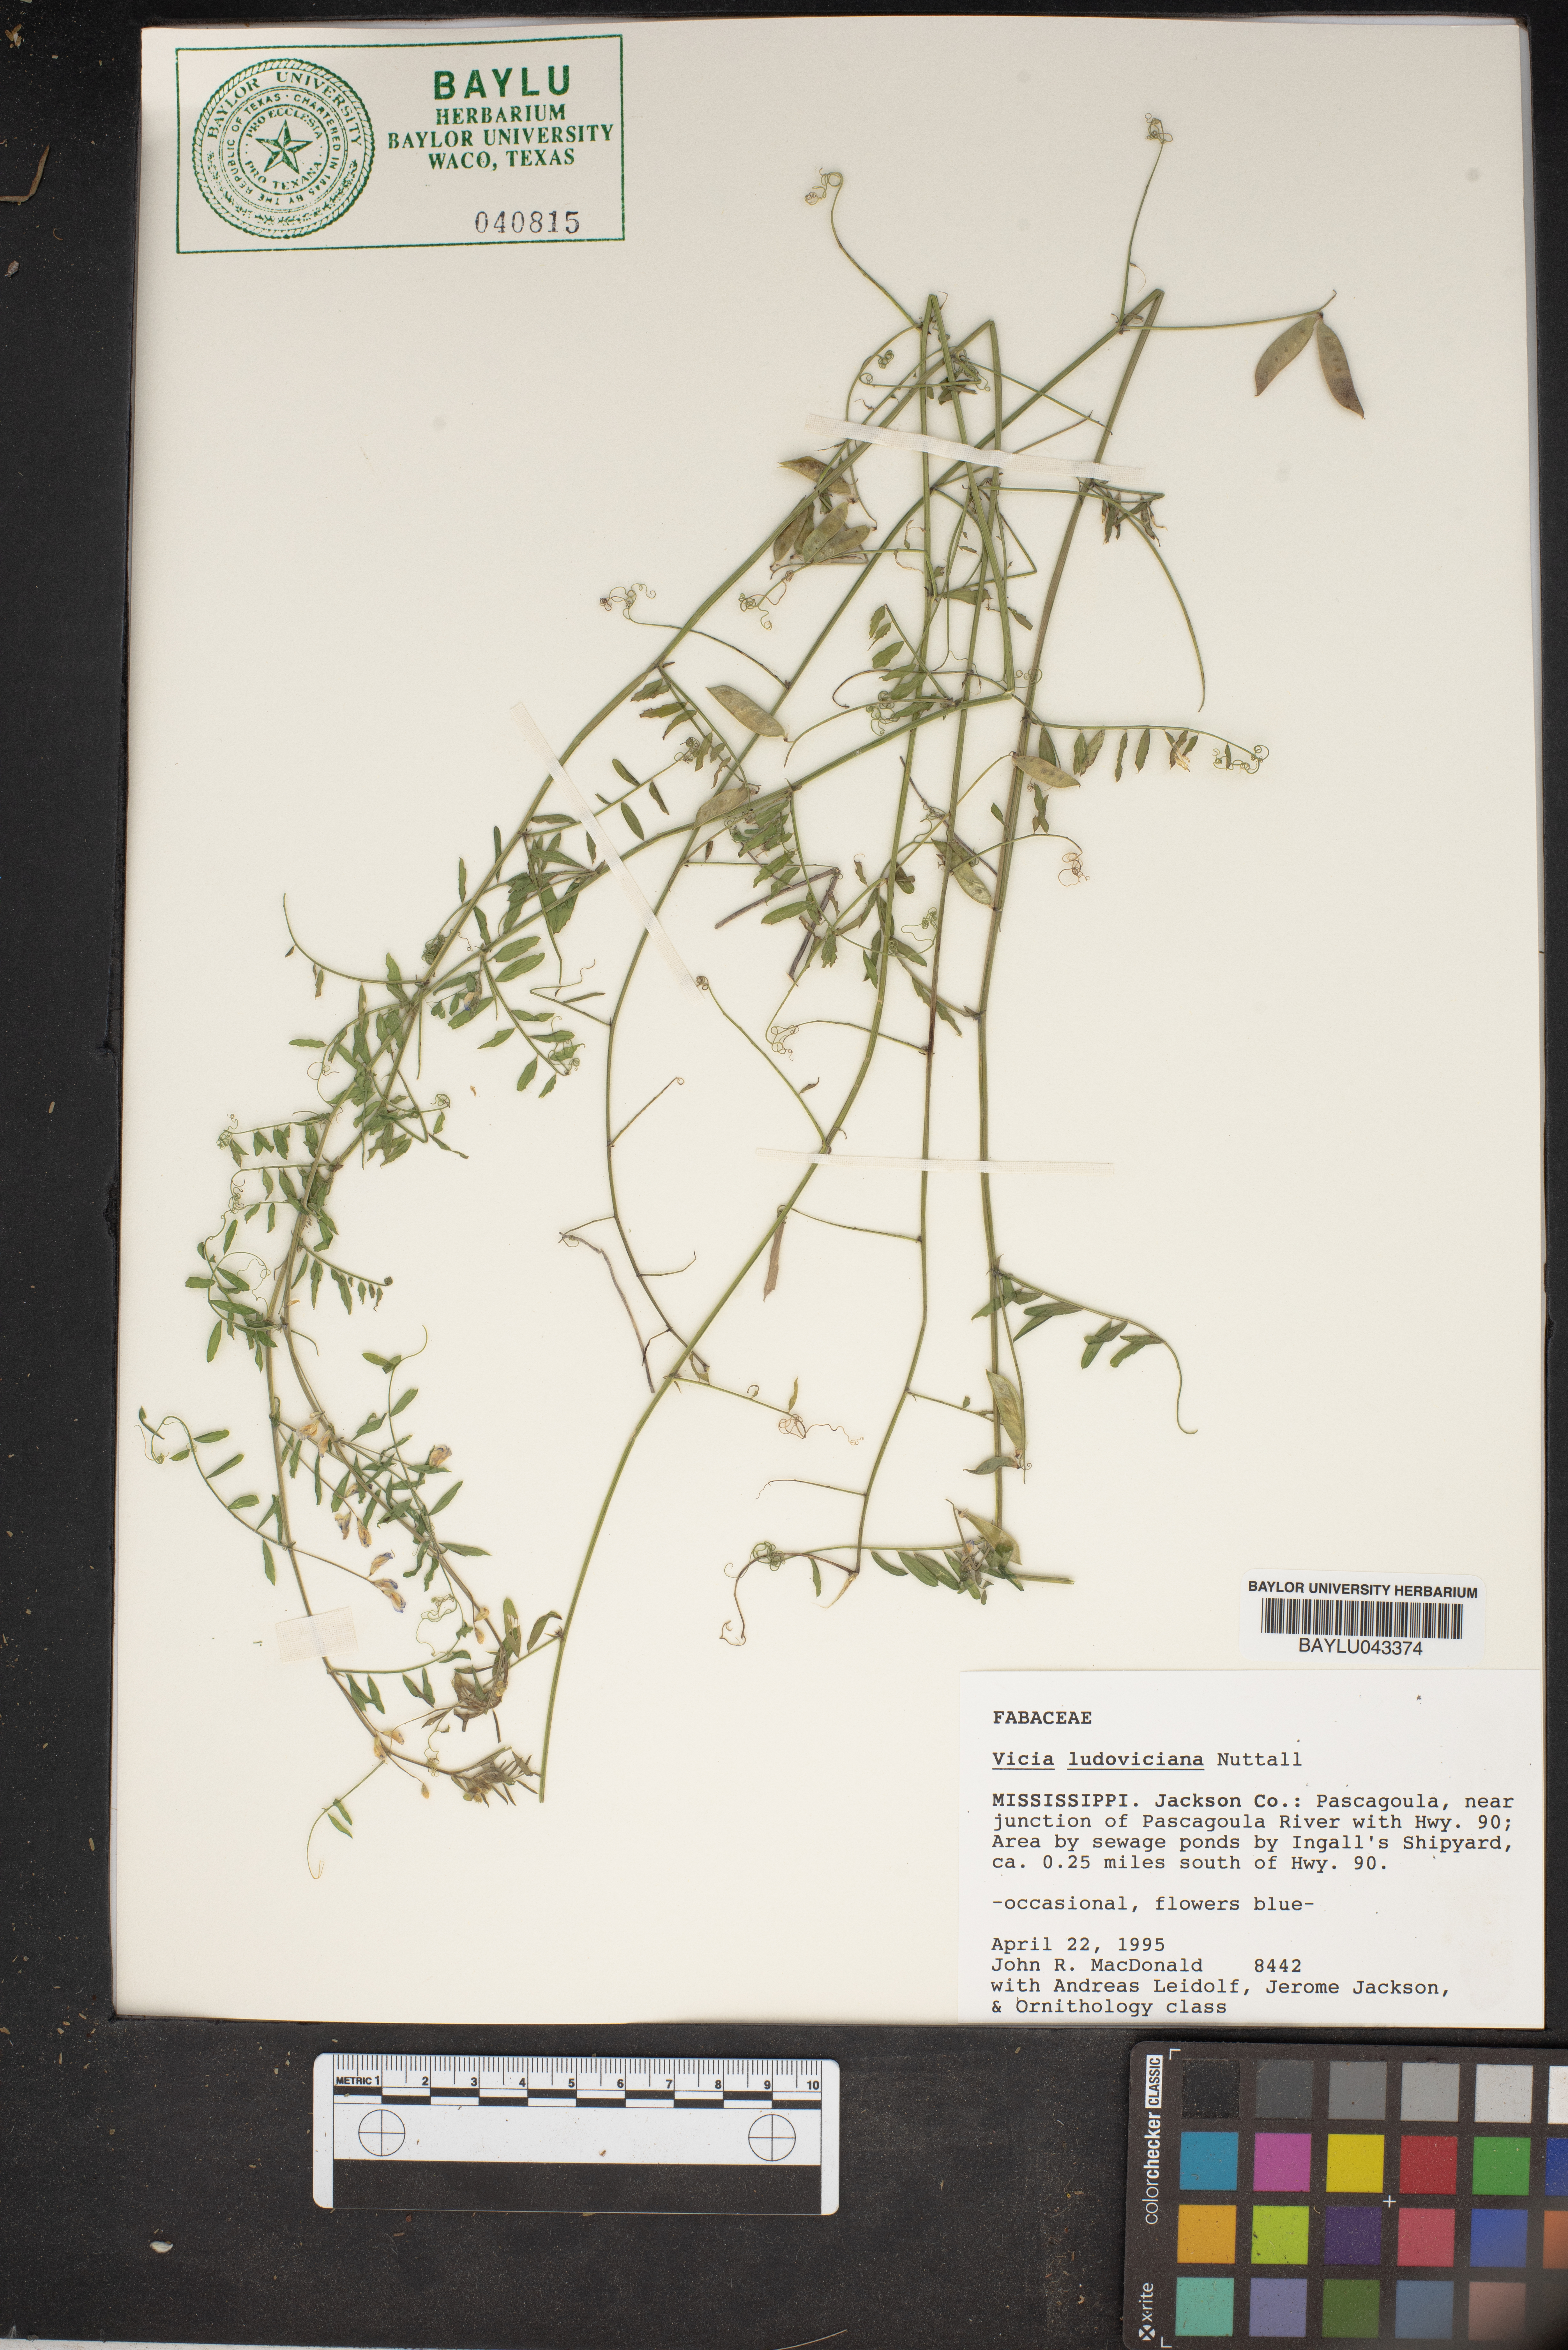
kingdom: Plantae
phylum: Tracheophyta
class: Magnoliopsida
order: Fabales
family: Fabaceae
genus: Vicia
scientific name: Vicia ludoviciana
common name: Louisiana vetch
